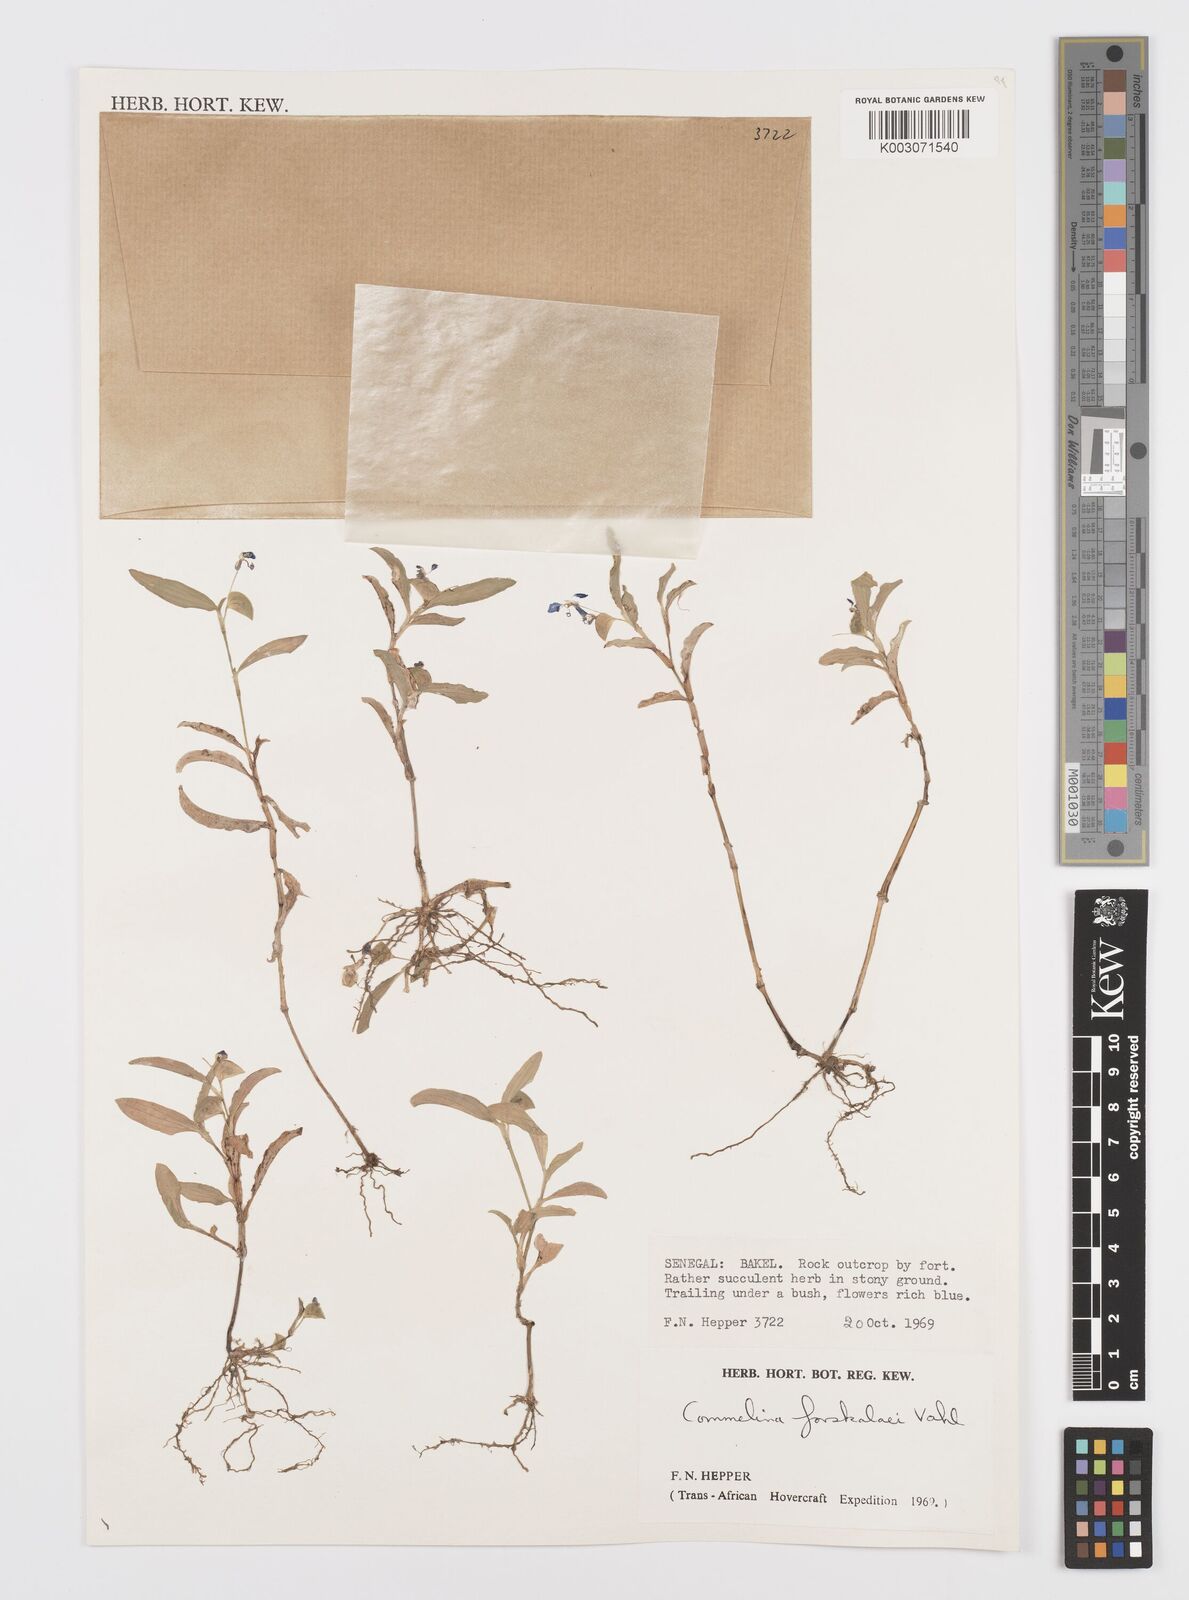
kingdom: Plantae
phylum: Tracheophyta
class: Liliopsida
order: Commelinales
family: Commelinaceae
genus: Commelina
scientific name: Commelina forskaolii
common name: Rat's ear
